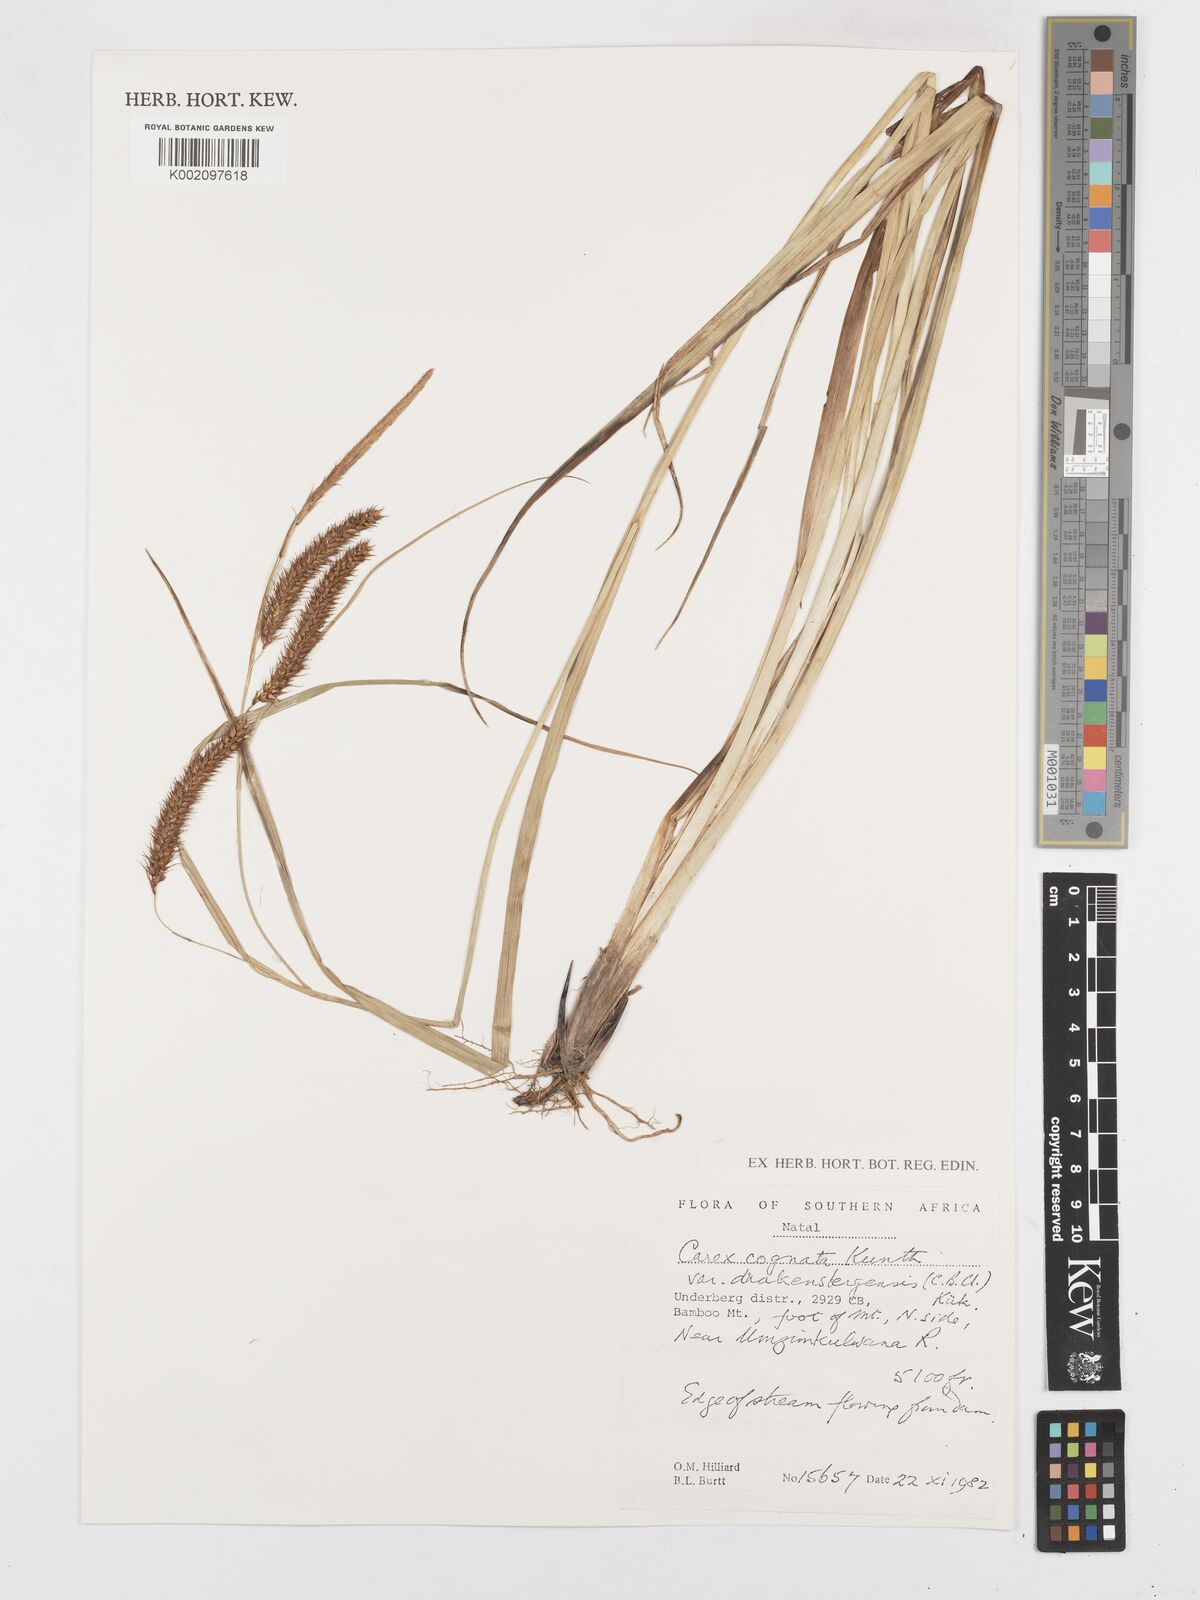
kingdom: Plantae
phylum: Tracheophyta
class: Liliopsida
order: Poales
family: Cyperaceae
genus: Carex
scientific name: Carex cognata
